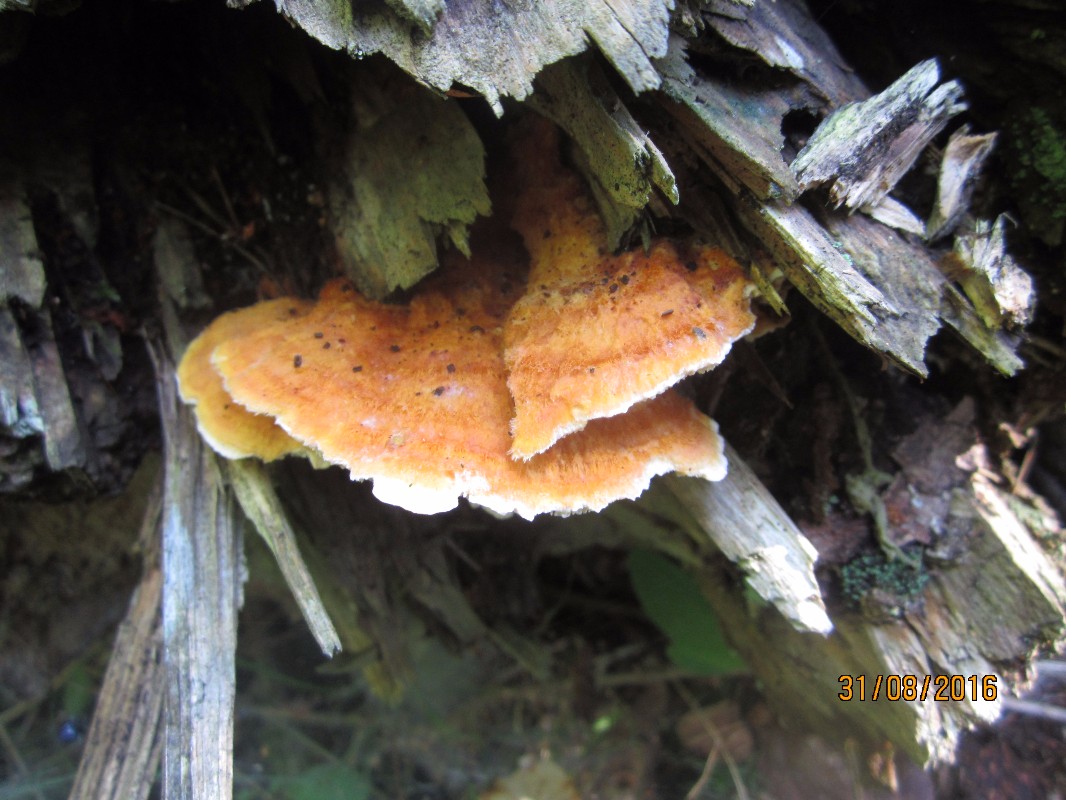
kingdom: Fungi
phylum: Basidiomycota
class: Agaricomycetes
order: Polyporales
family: Pycnoporellaceae
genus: Pycnoporellus
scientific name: Pycnoporellus fulgens
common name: flammeporesvamp
